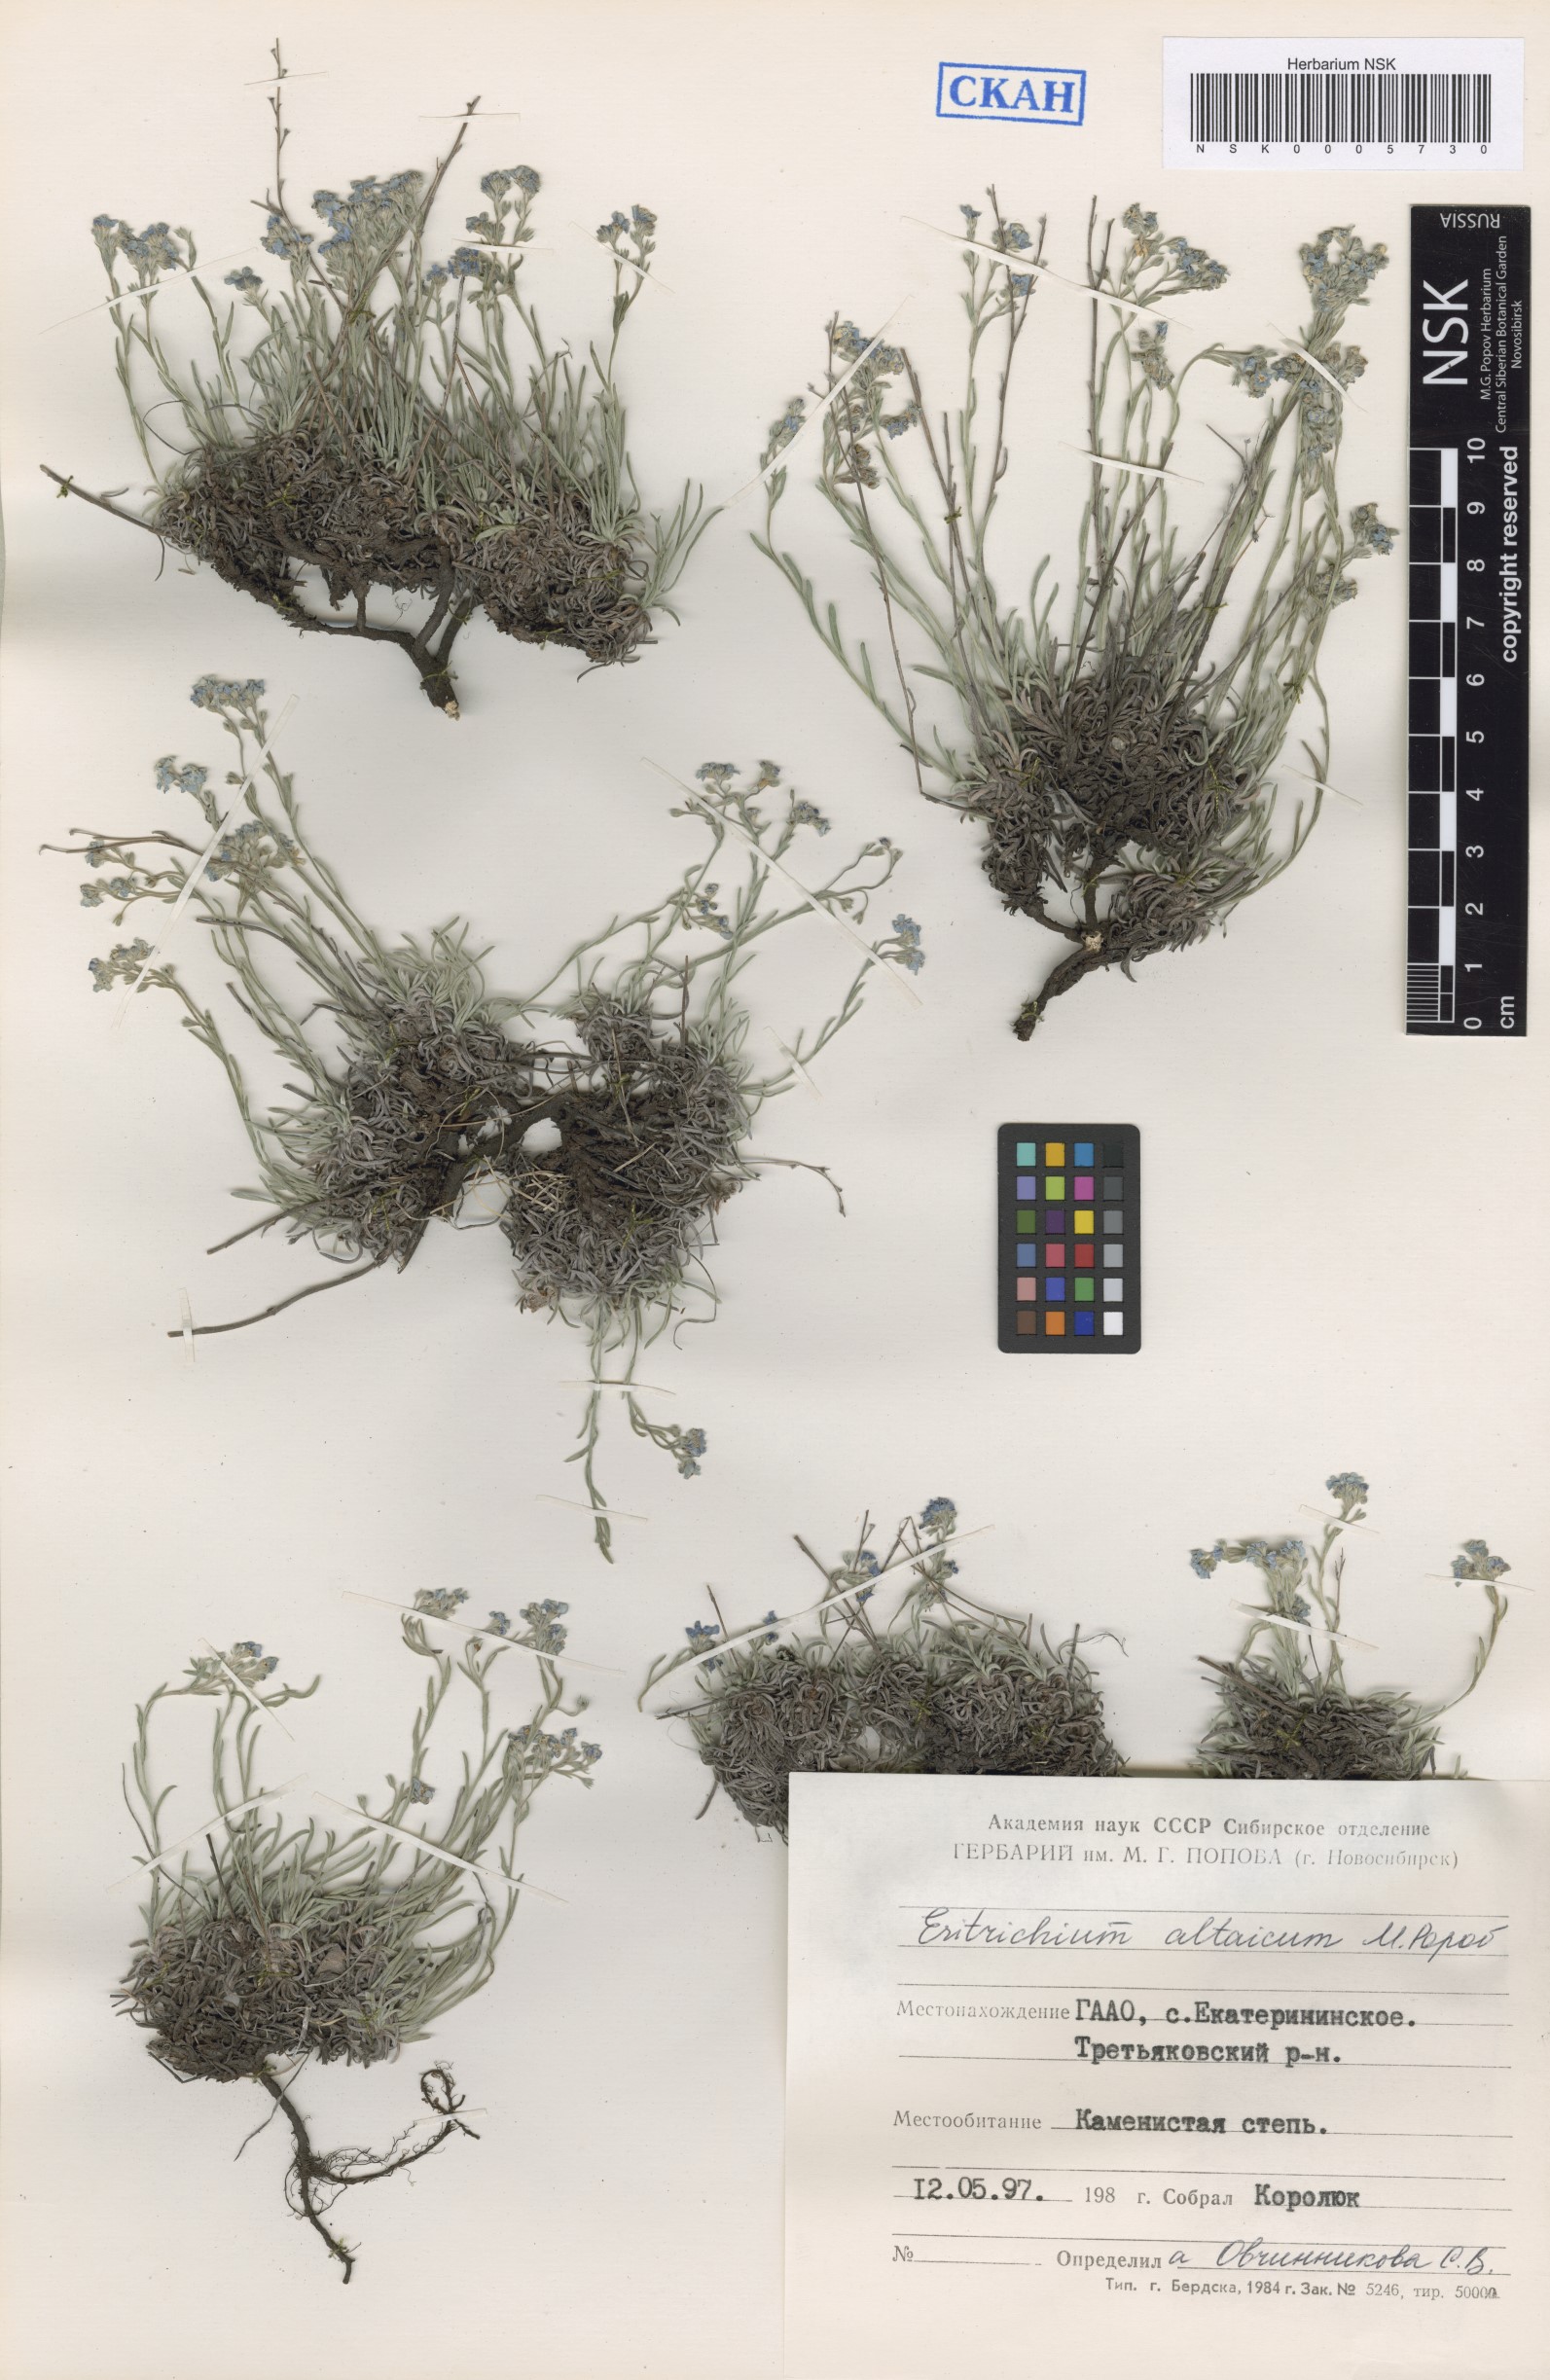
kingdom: Plantae
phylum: Tracheophyta
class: Magnoliopsida
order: Boraginales
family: Boraginaceae
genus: Eritrichium
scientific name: Eritrichium pauciflorum
